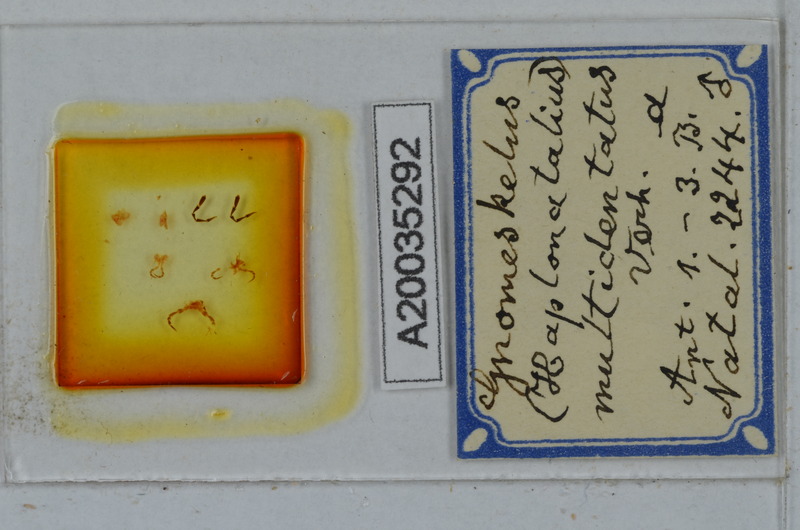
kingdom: Animalia
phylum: Arthropoda
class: Diplopoda
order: Polydesmida
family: Dalodesmidae
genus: Gnomeskelus
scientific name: Gnomeskelus multidentatus
